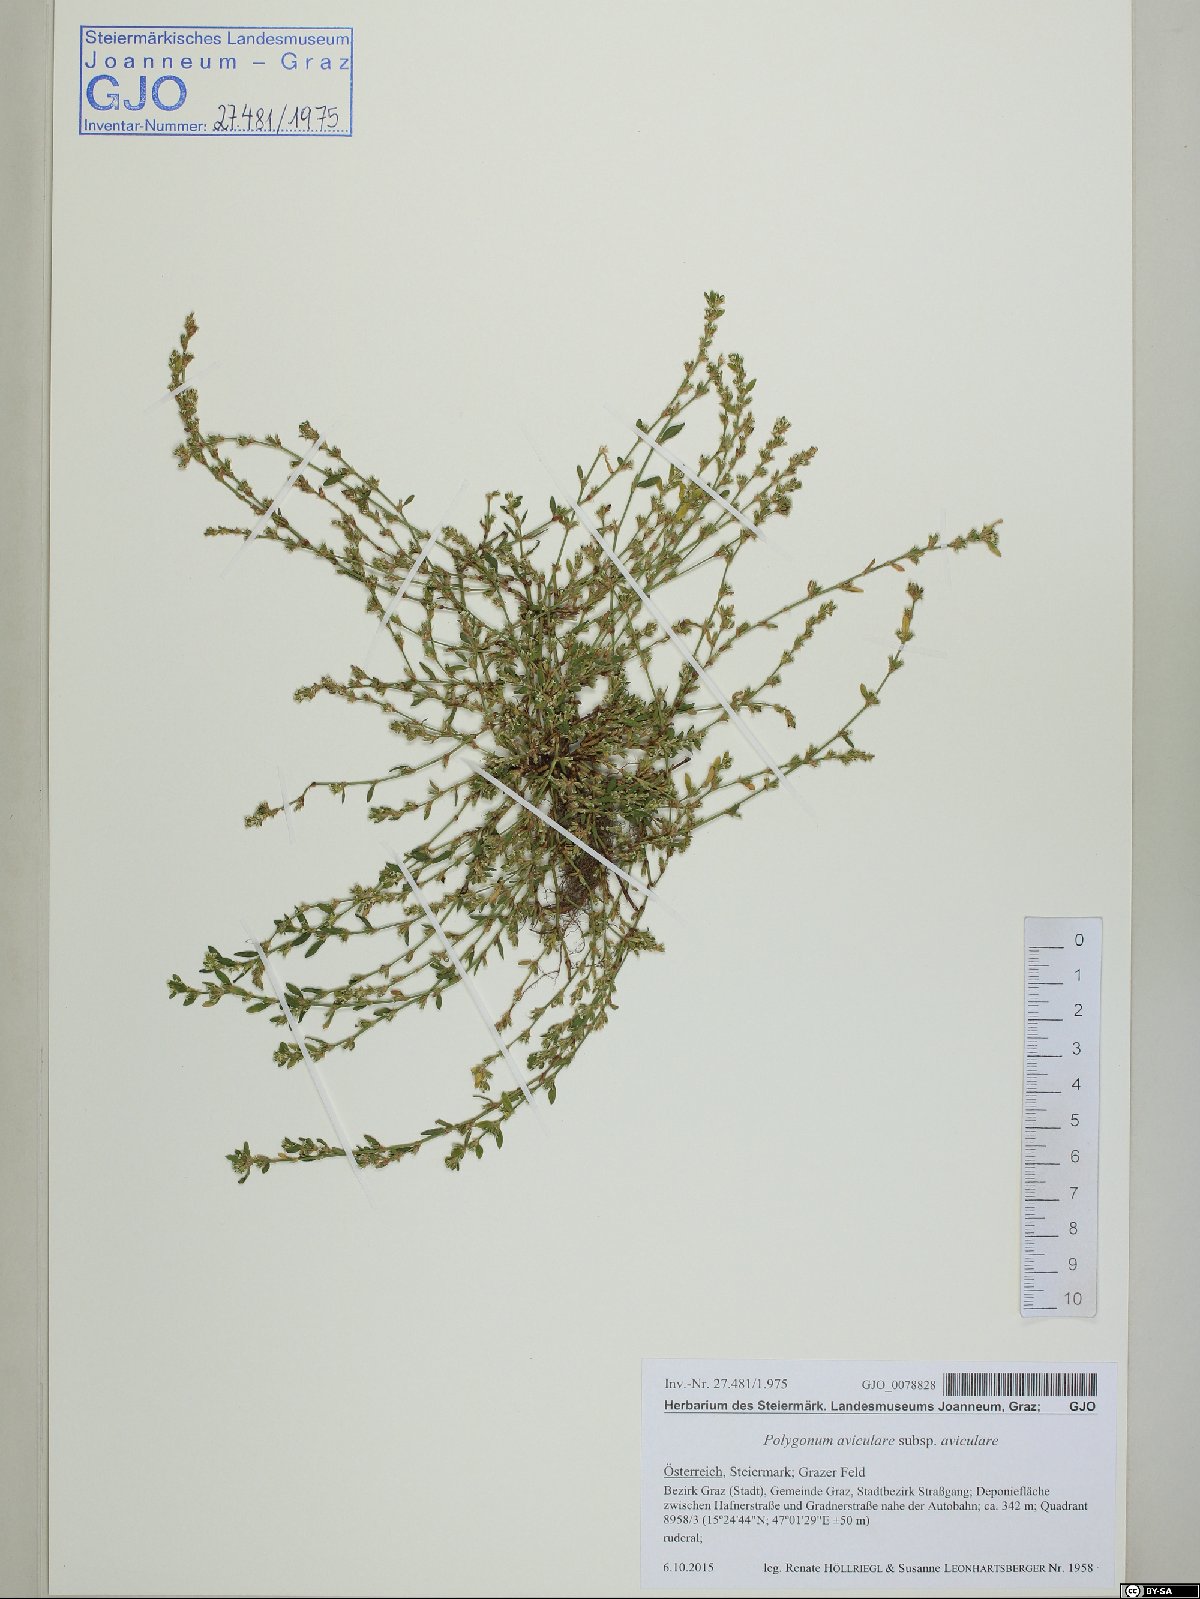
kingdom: Plantae
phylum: Tracheophyta
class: Magnoliopsida
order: Caryophyllales
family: Polygonaceae
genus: Polygonum
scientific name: Polygonum aviculare
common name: Prostrate knotweed
